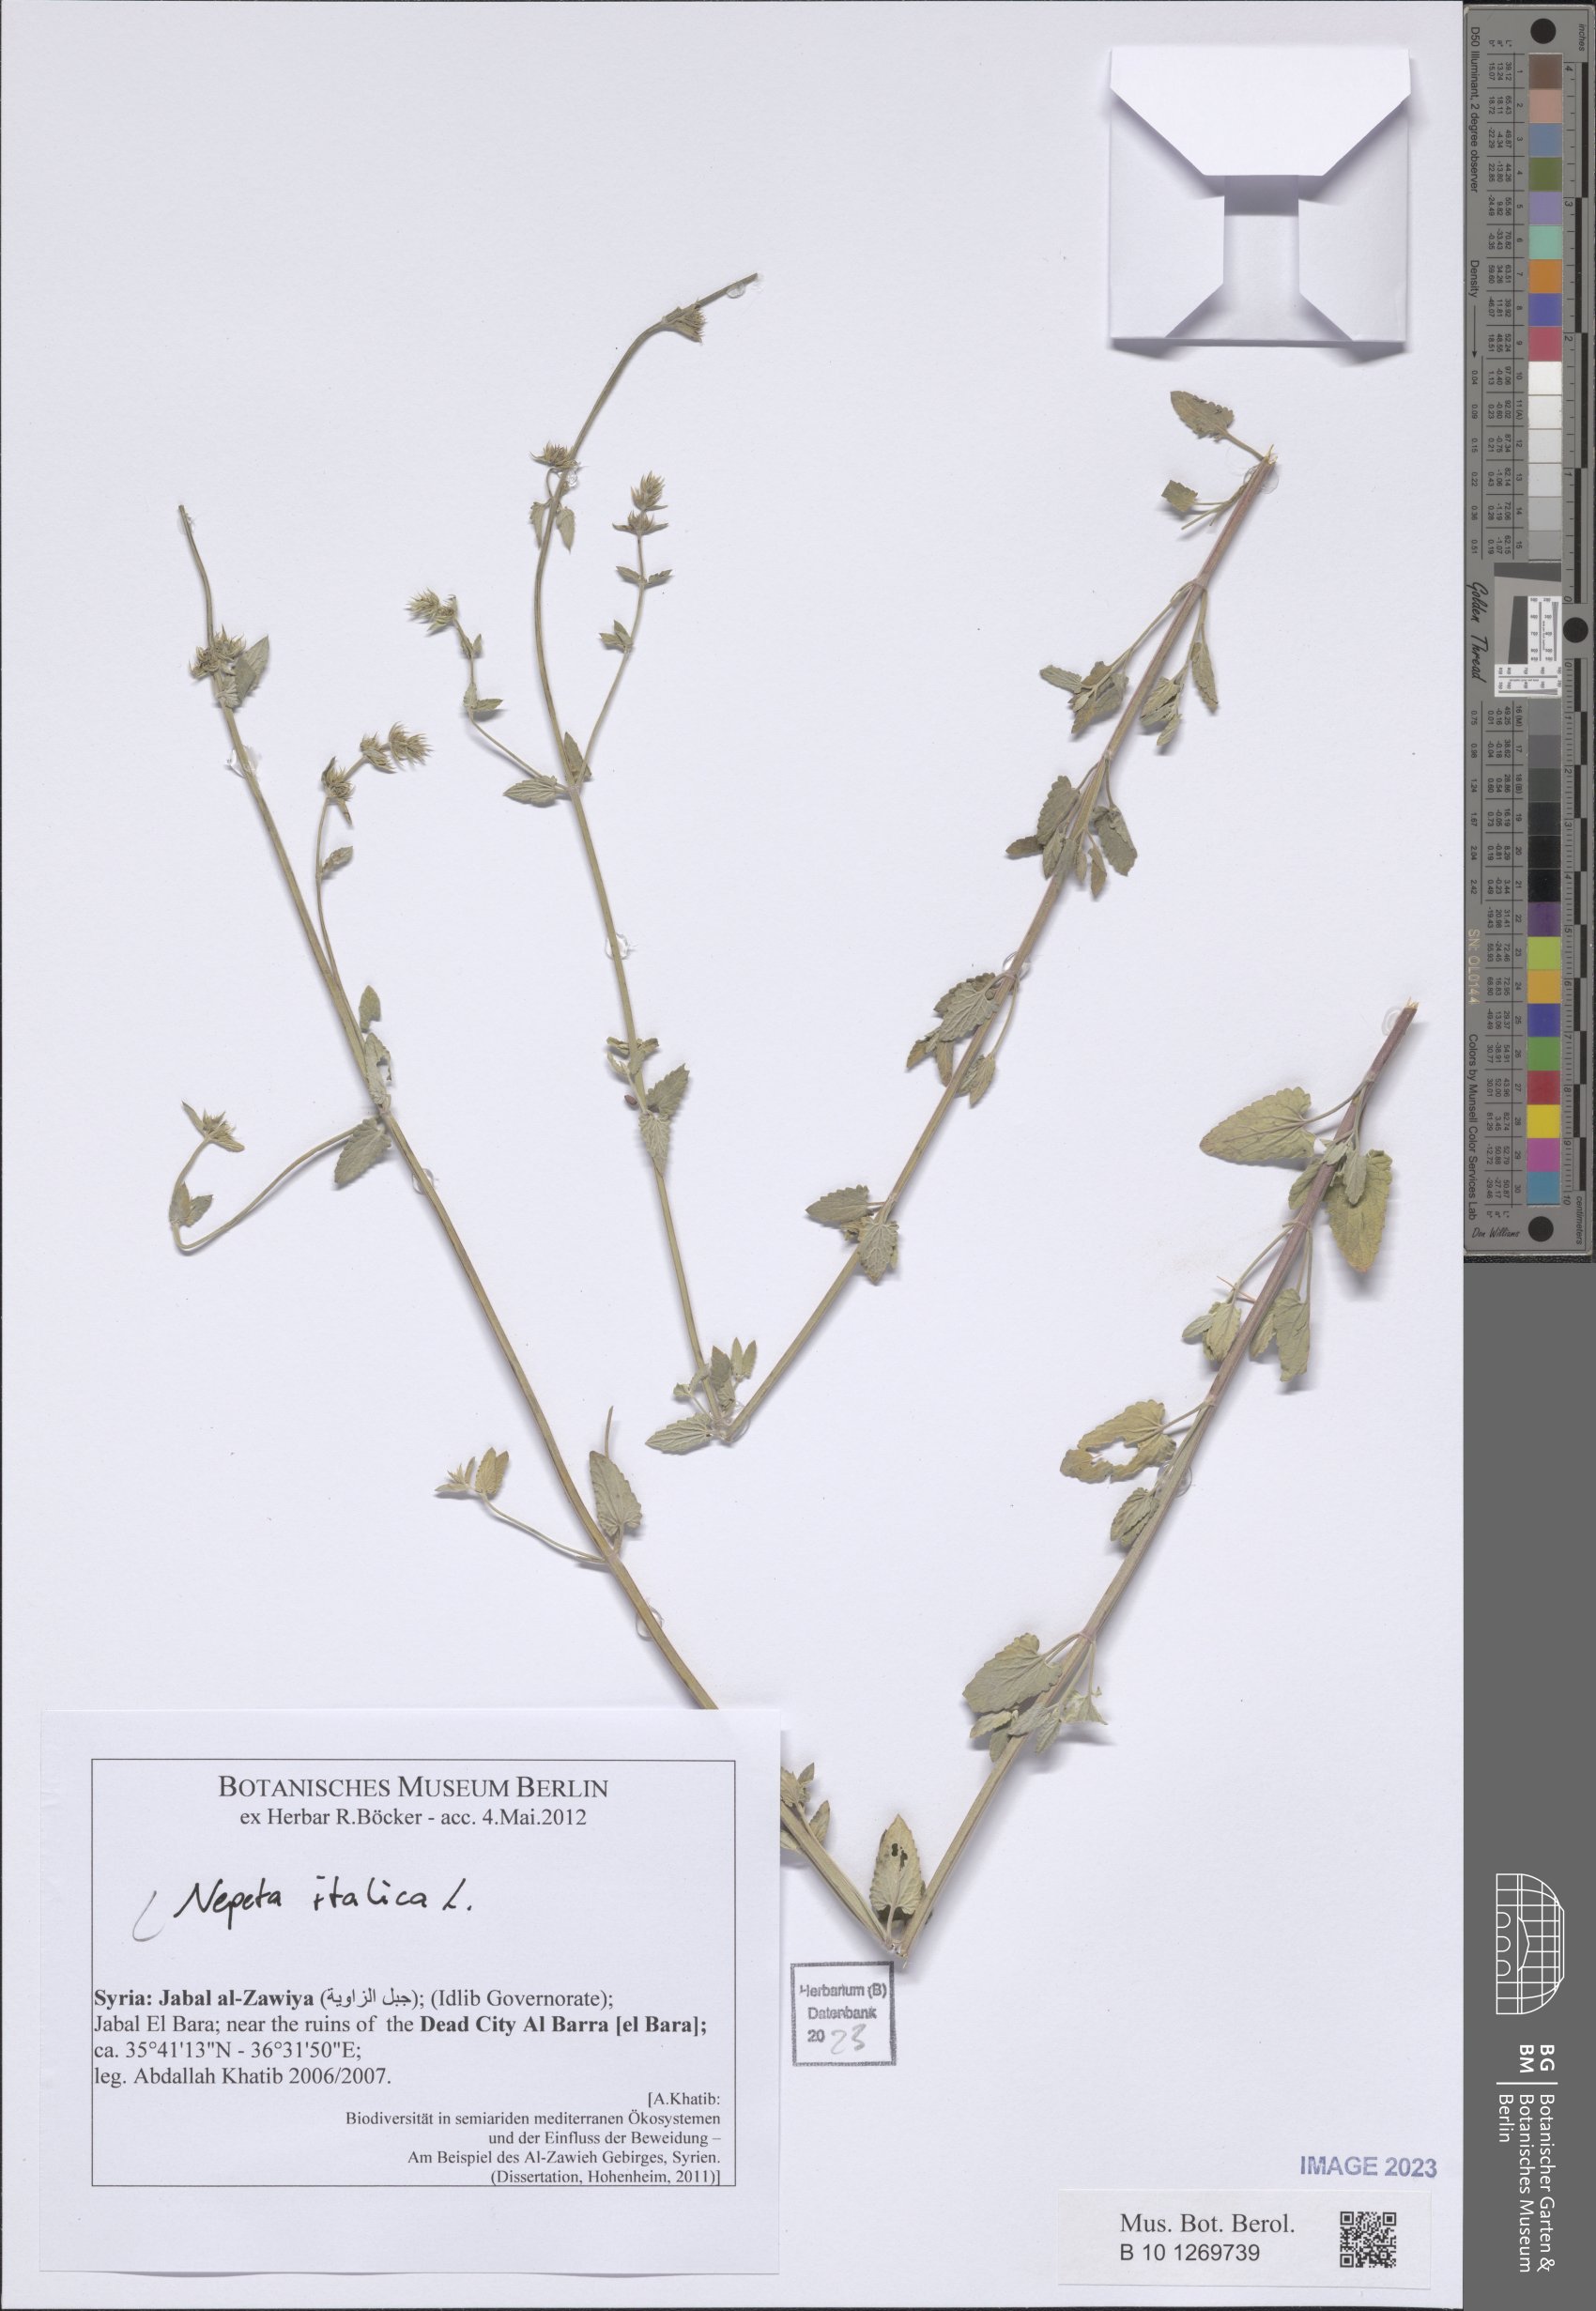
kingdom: Plantae
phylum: Tracheophyta
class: Magnoliopsida
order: Lamiales
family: Lamiaceae
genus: Nepeta
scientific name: Nepeta italica
